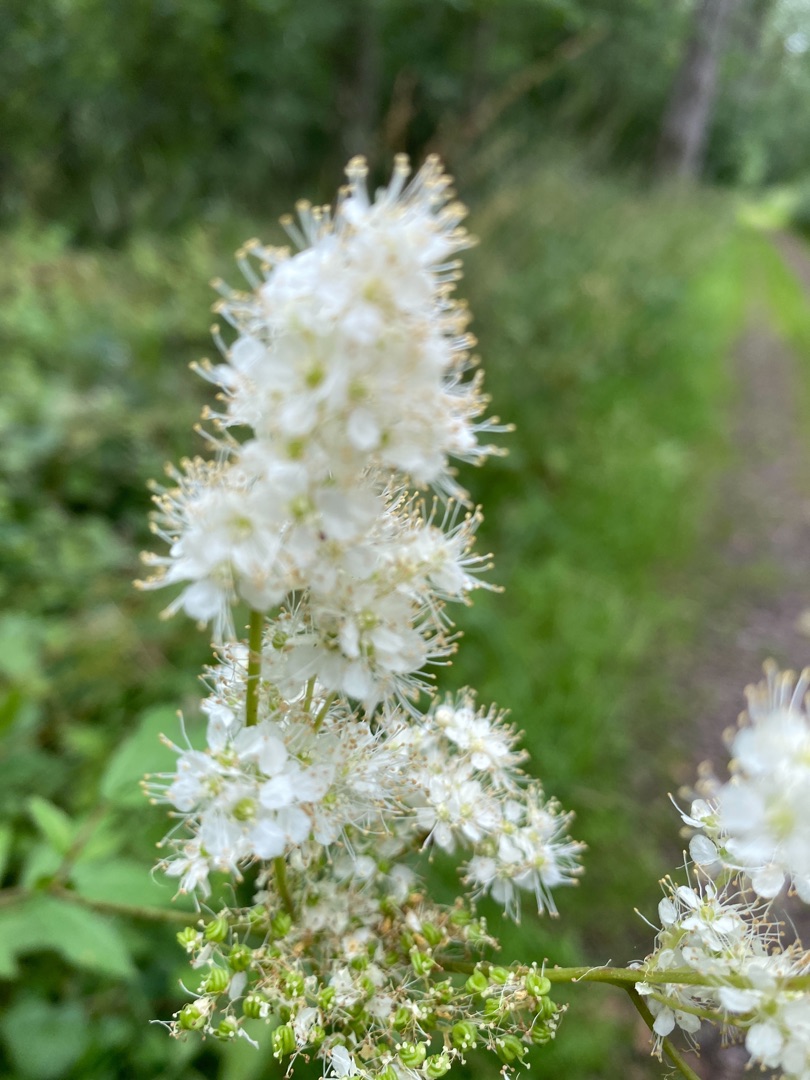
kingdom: Plantae
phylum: Tracheophyta
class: Magnoliopsida
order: Rosales
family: Rosaceae
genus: Filipendula
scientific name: Filipendula ulmaria
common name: Almindelig mjødurt
